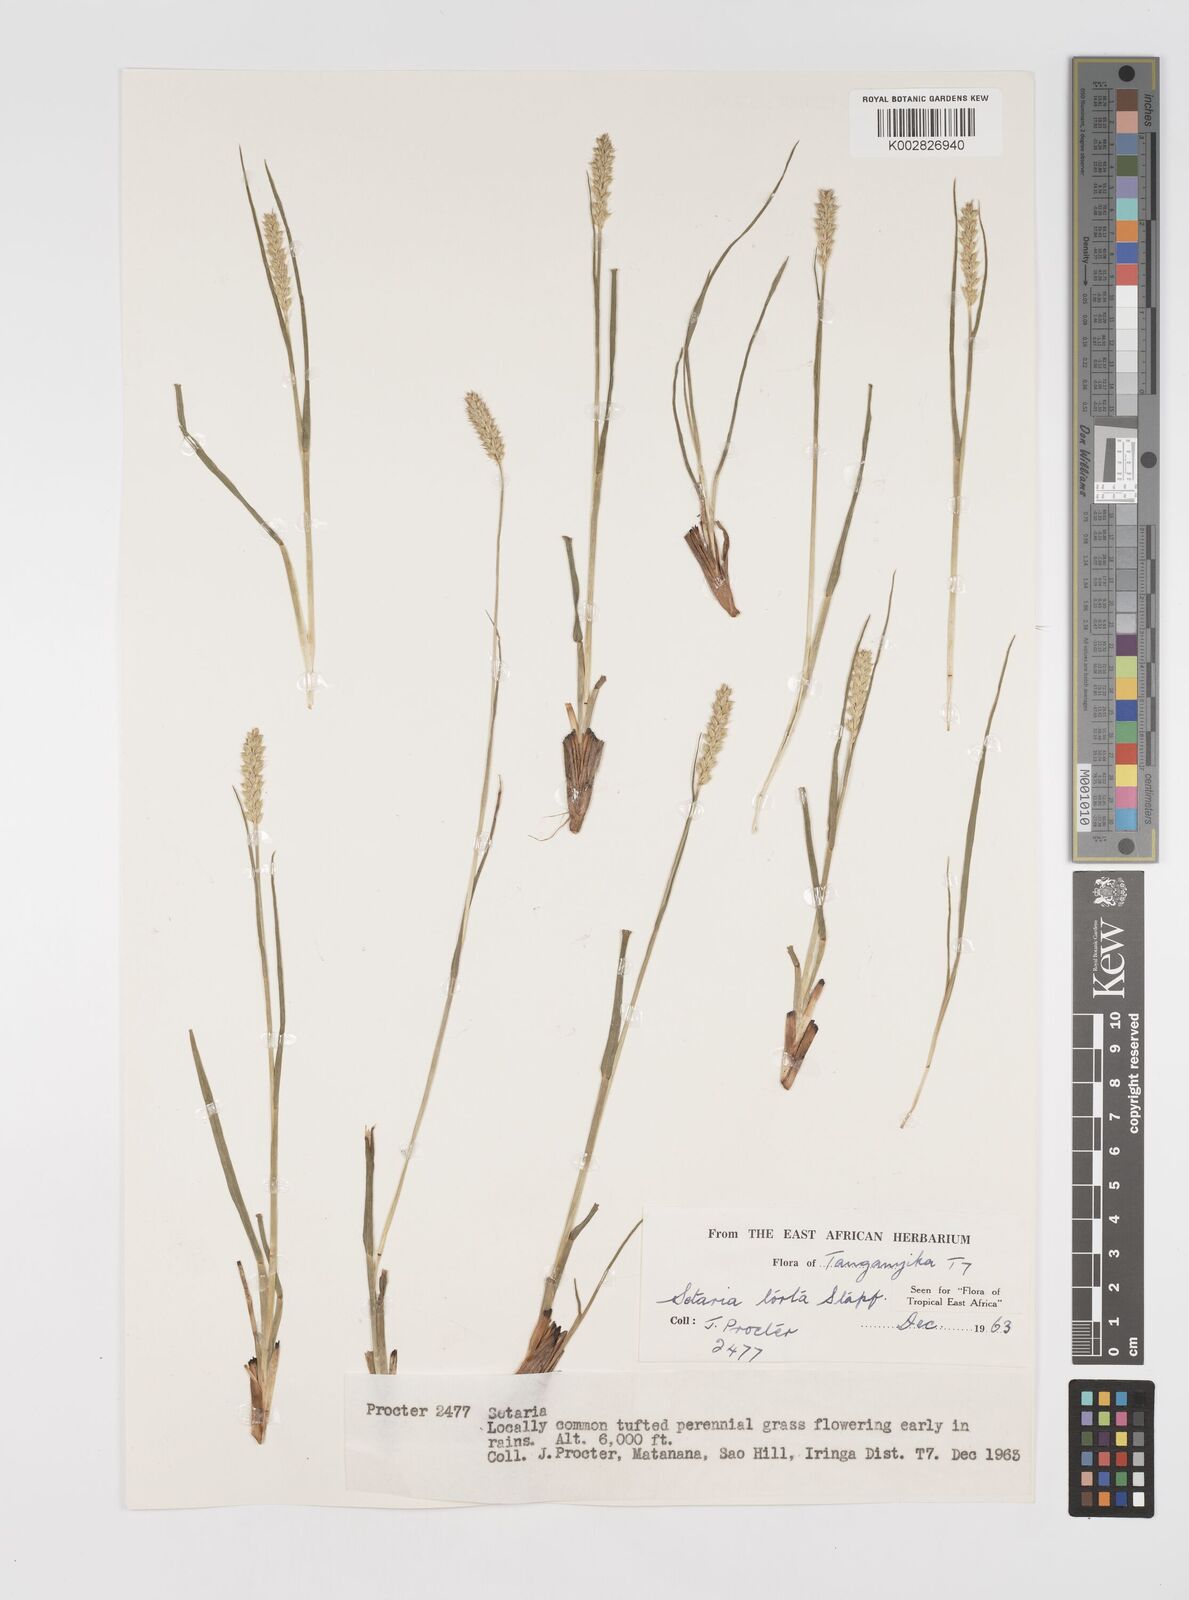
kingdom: Plantae
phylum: Tracheophyta
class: Liliopsida
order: Poales
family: Poaceae
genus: Setaria
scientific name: Setaria sphacelata
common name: African bristlegrass
